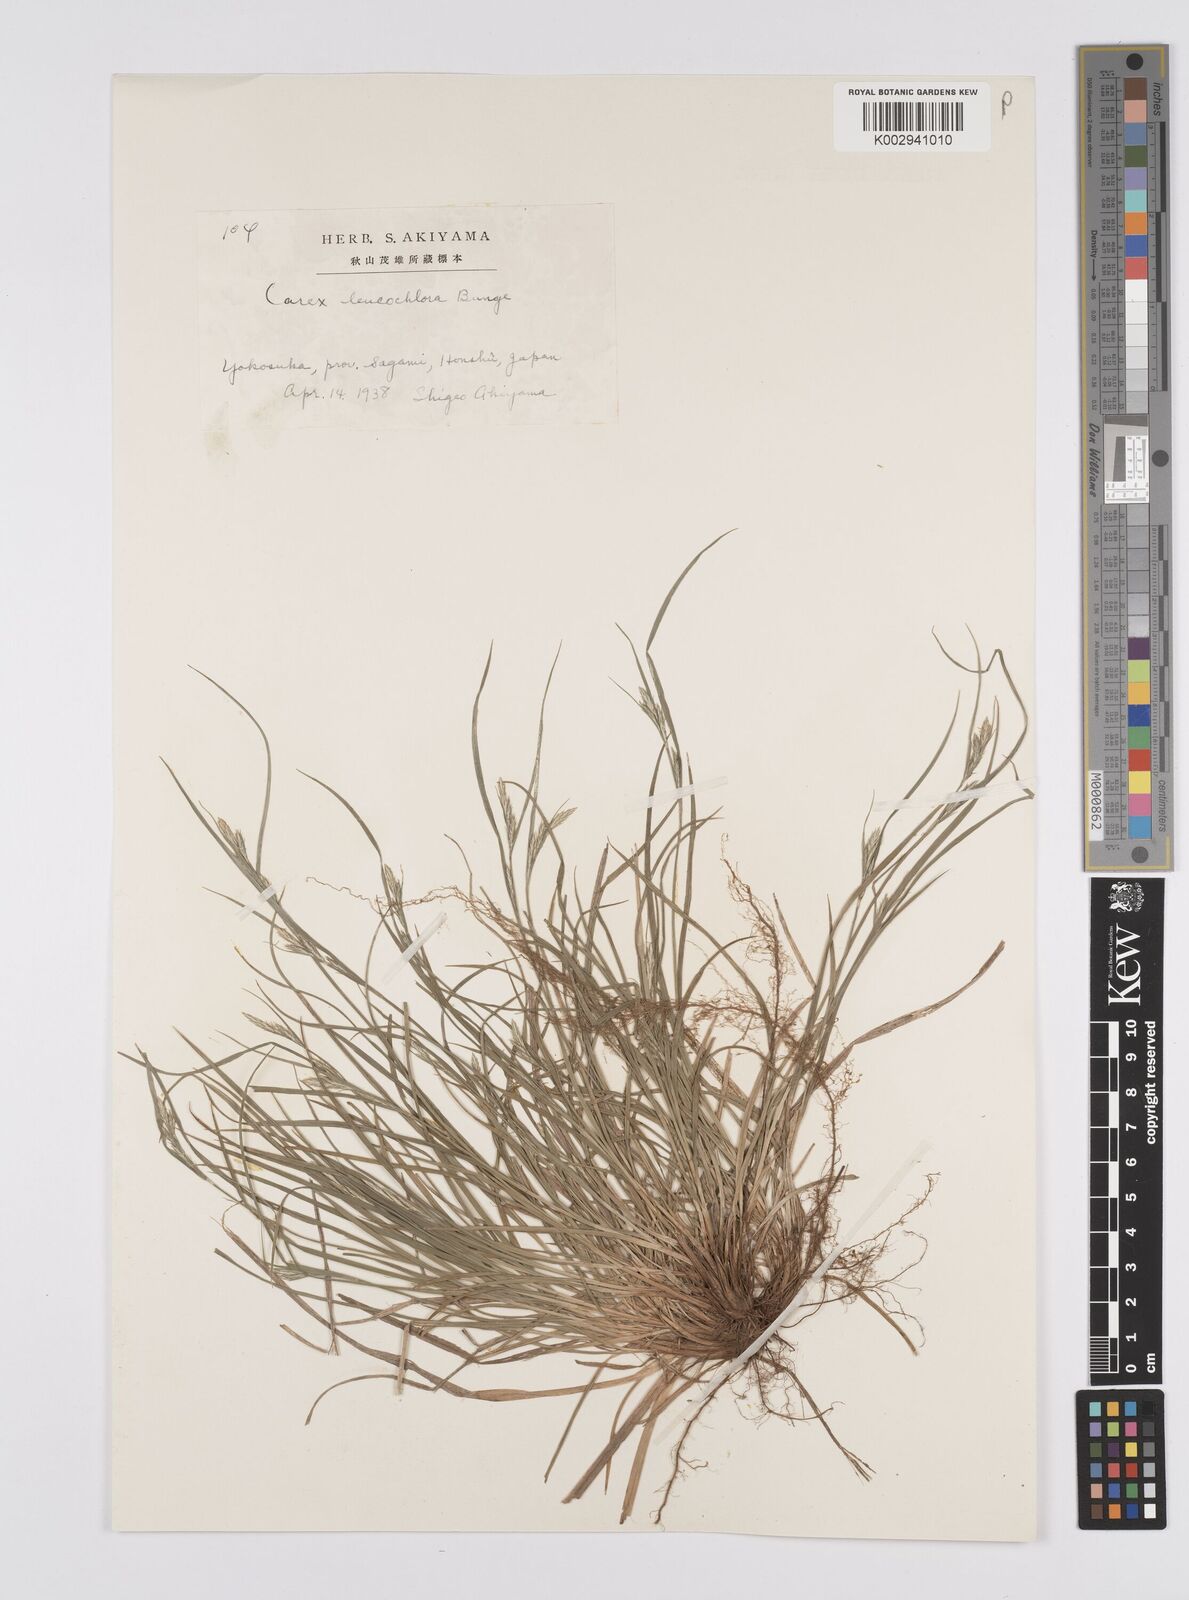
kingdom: Plantae
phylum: Tracheophyta
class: Liliopsida
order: Poales
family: Cyperaceae
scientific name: Cyperaceae
